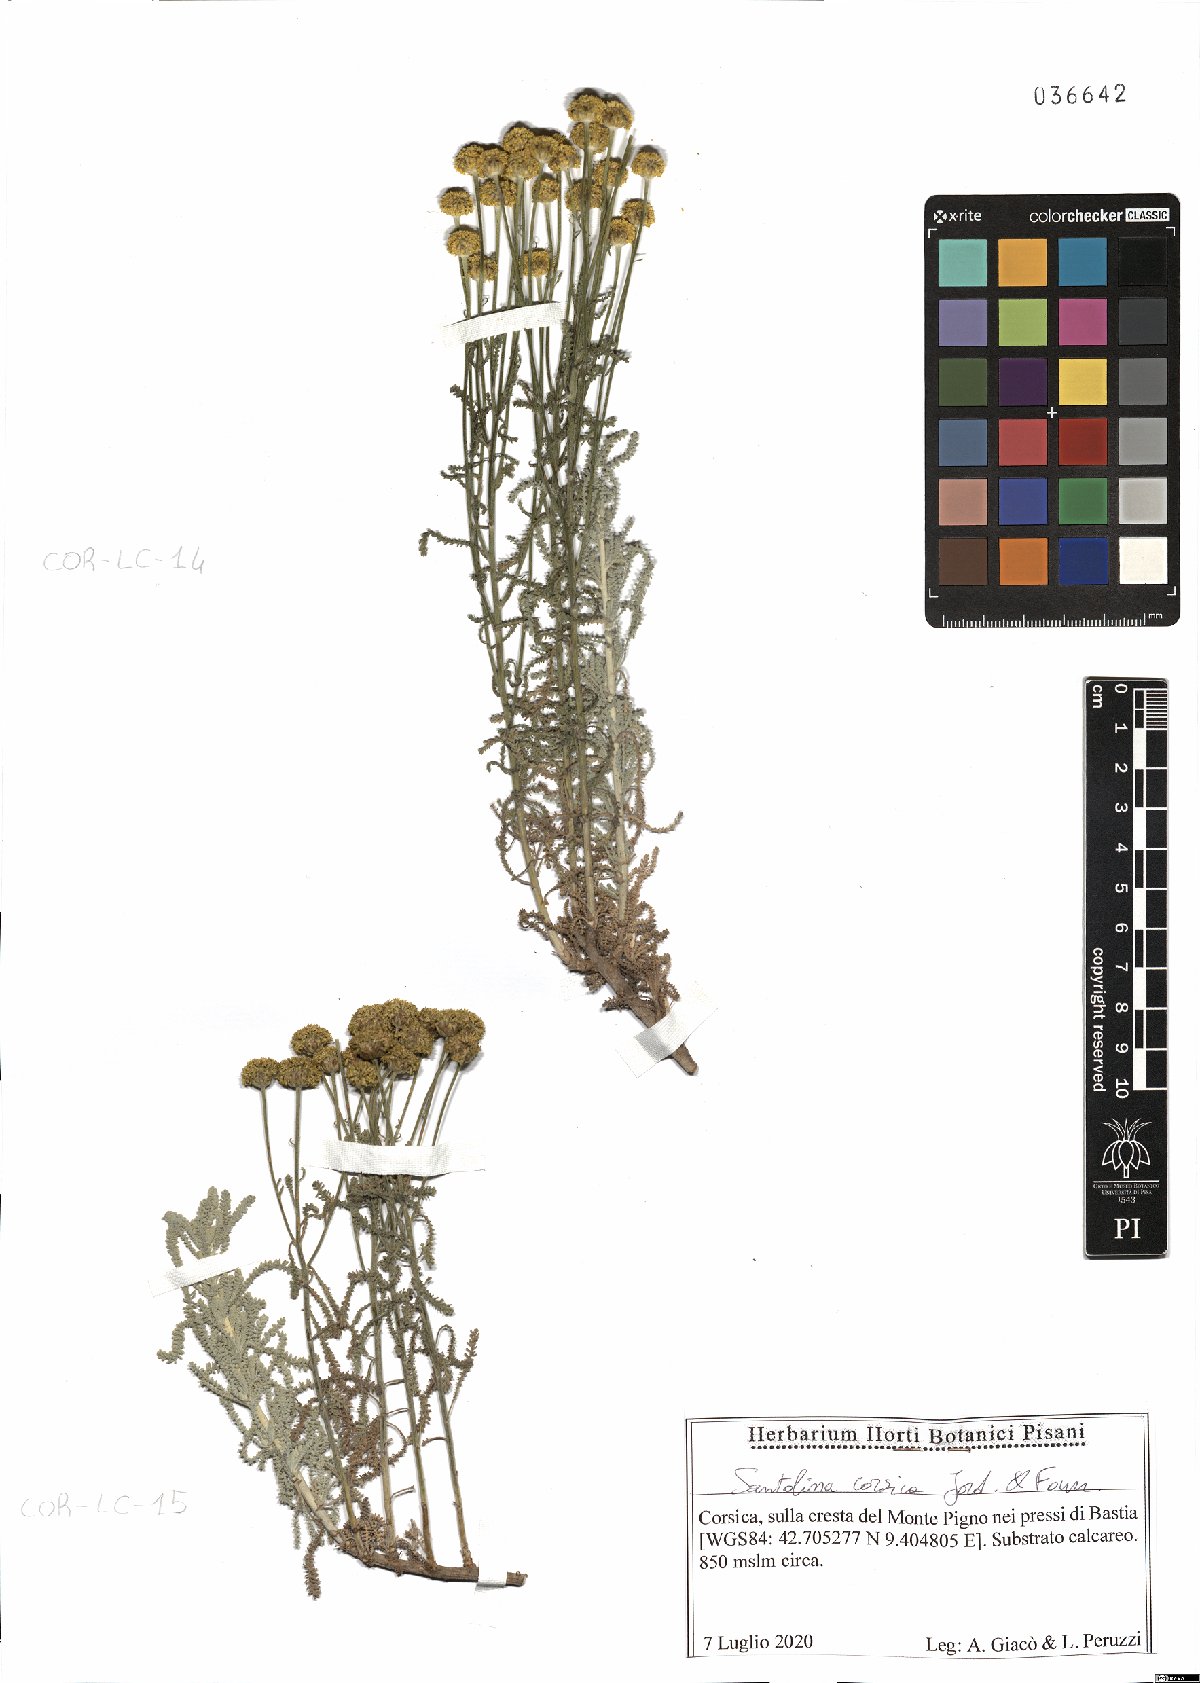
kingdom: Plantae
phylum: Tracheophyta
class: Magnoliopsida
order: Asterales
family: Asteraceae
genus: Santolina
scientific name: Santolina corsica
